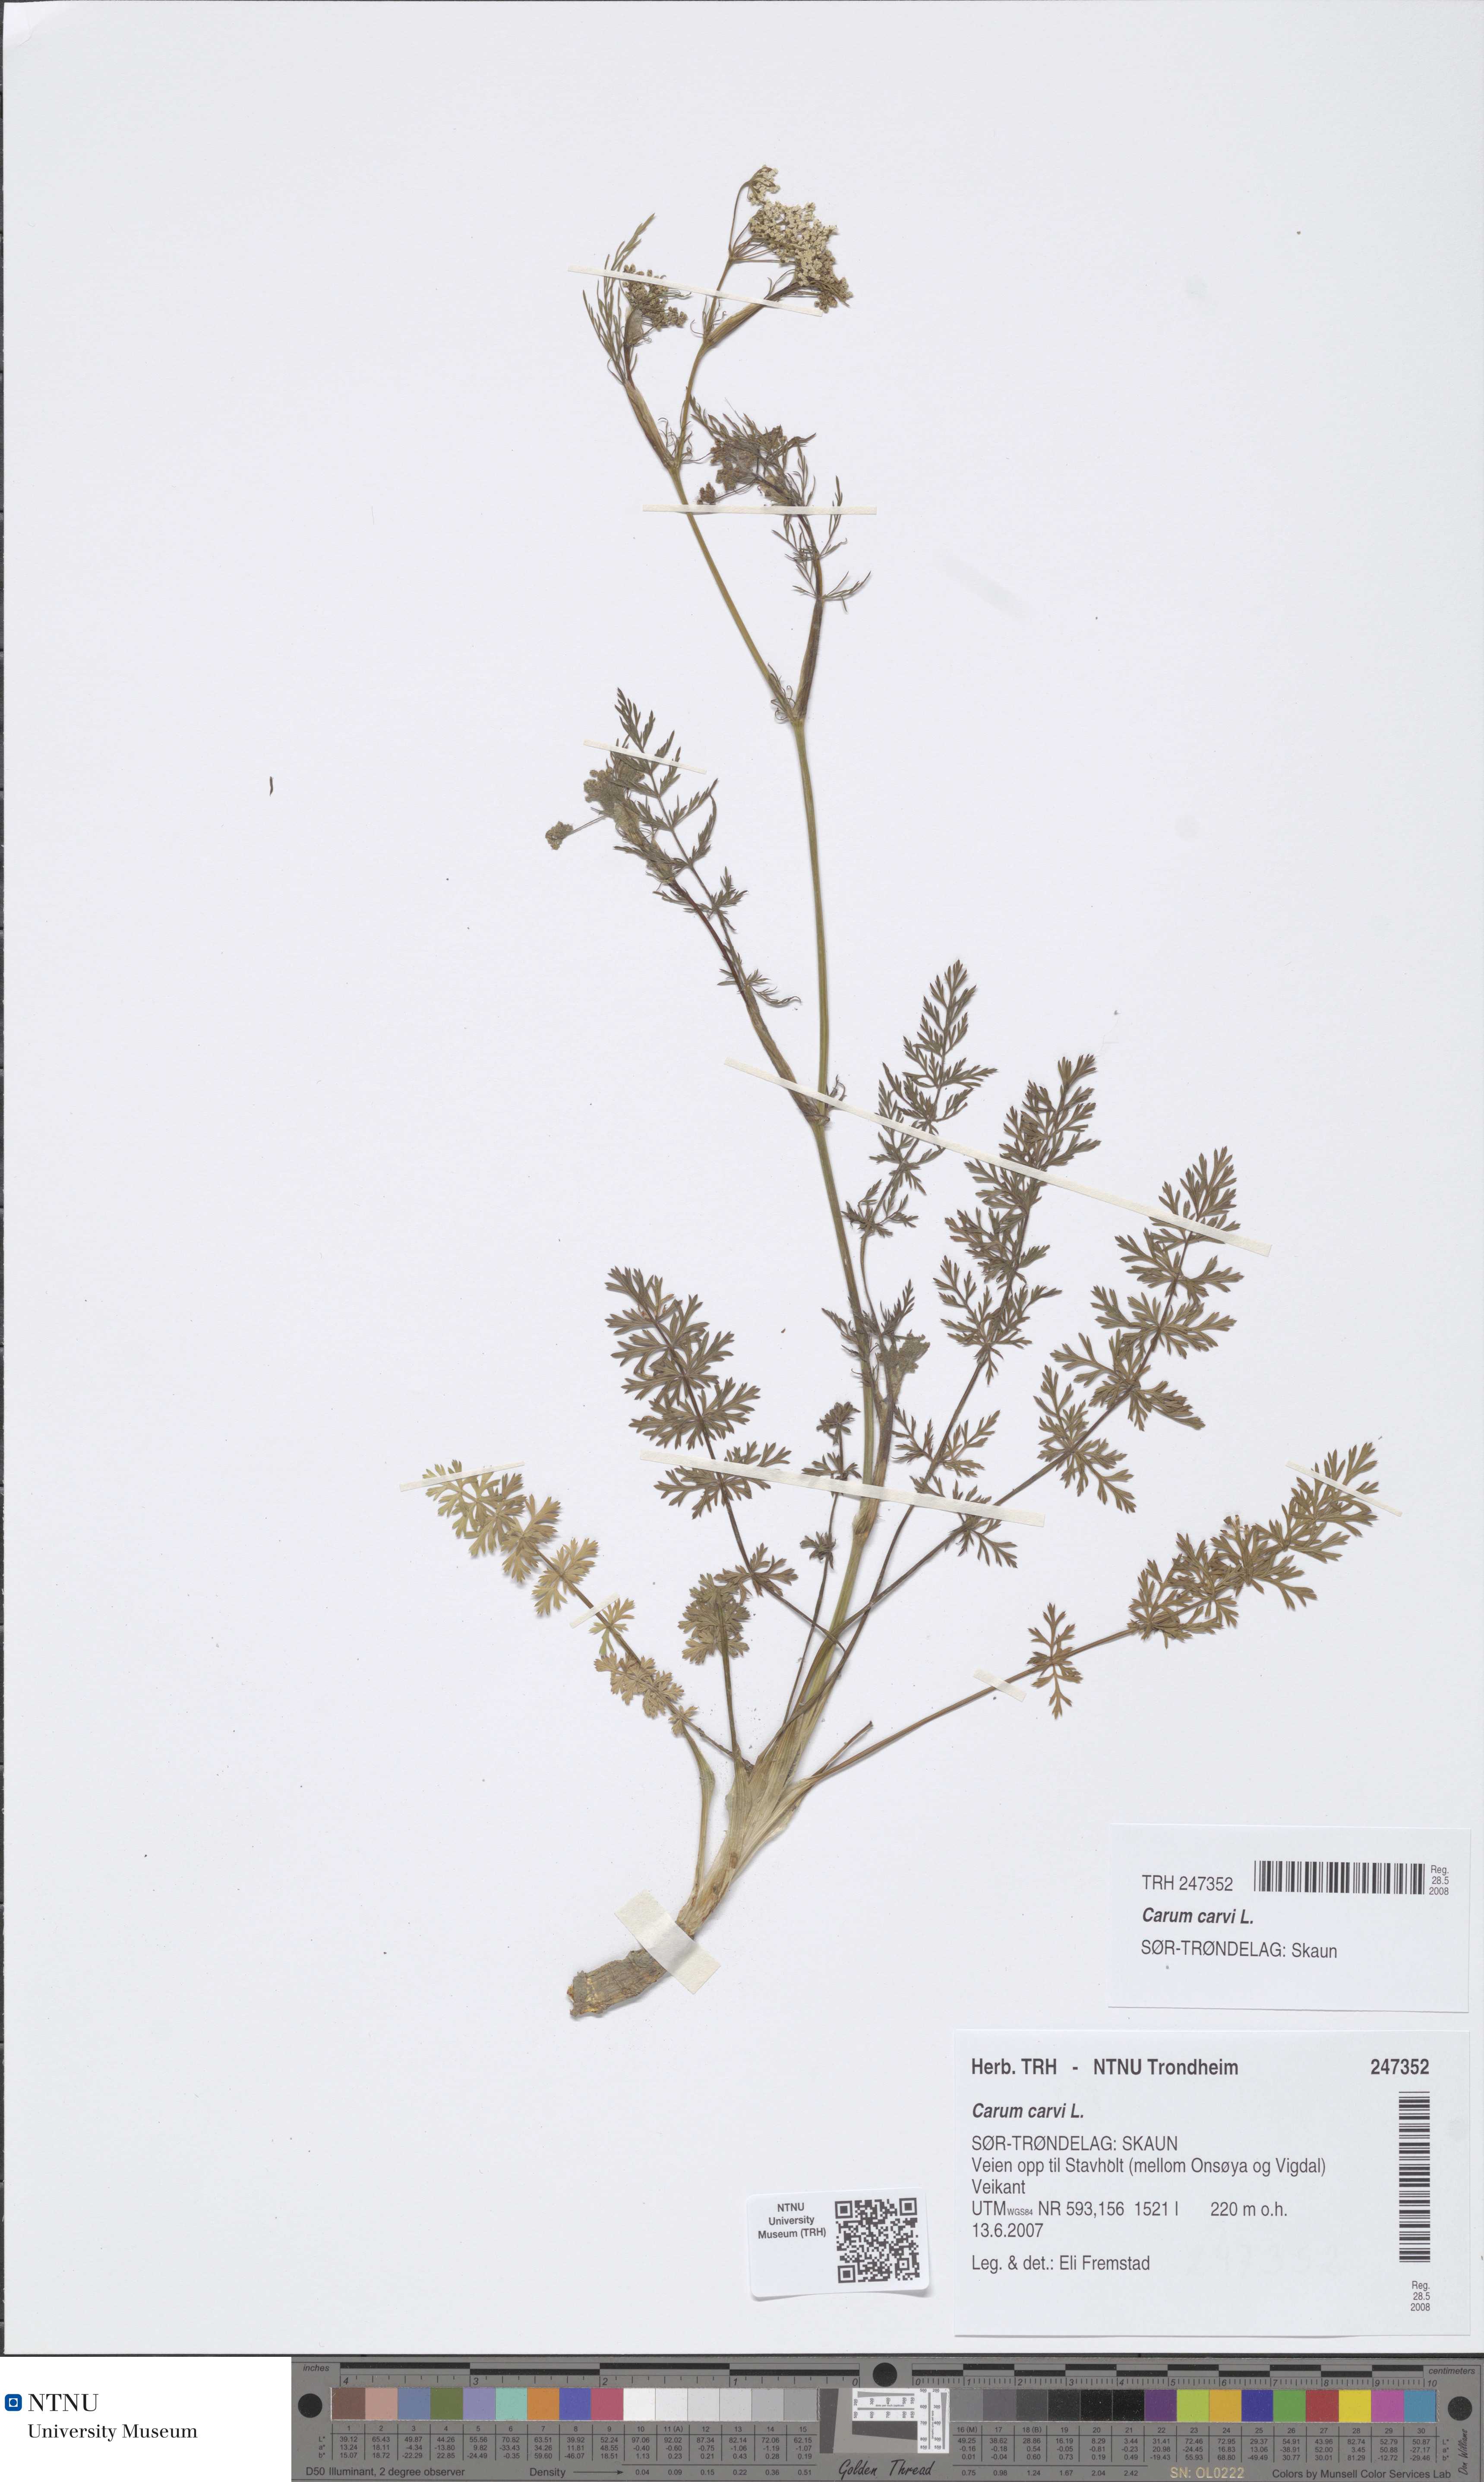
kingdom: Plantae
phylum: Tracheophyta
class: Magnoliopsida
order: Apiales
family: Apiaceae
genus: Carum
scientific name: Carum carvi
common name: Caraway
